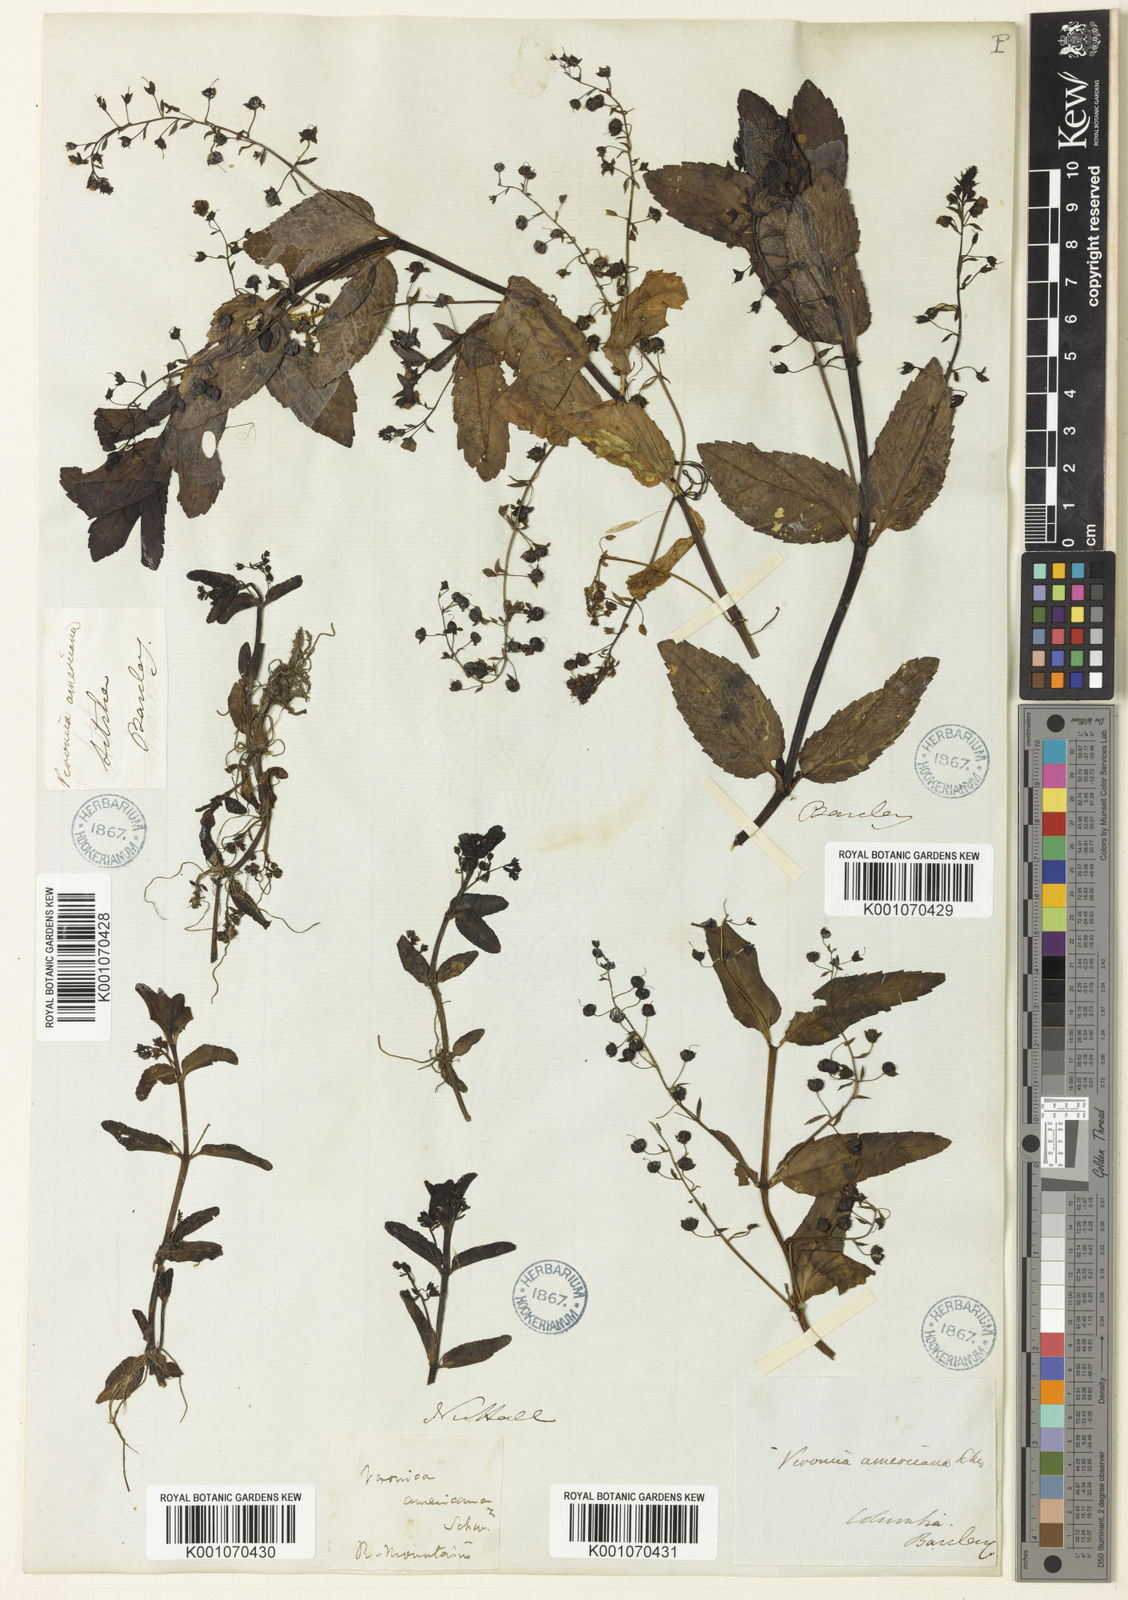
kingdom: Plantae
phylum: Tracheophyta
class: Magnoliopsida
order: Lamiales
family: Plantaginaceae
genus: Veronica
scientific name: Veronica americana
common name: American brooklime
